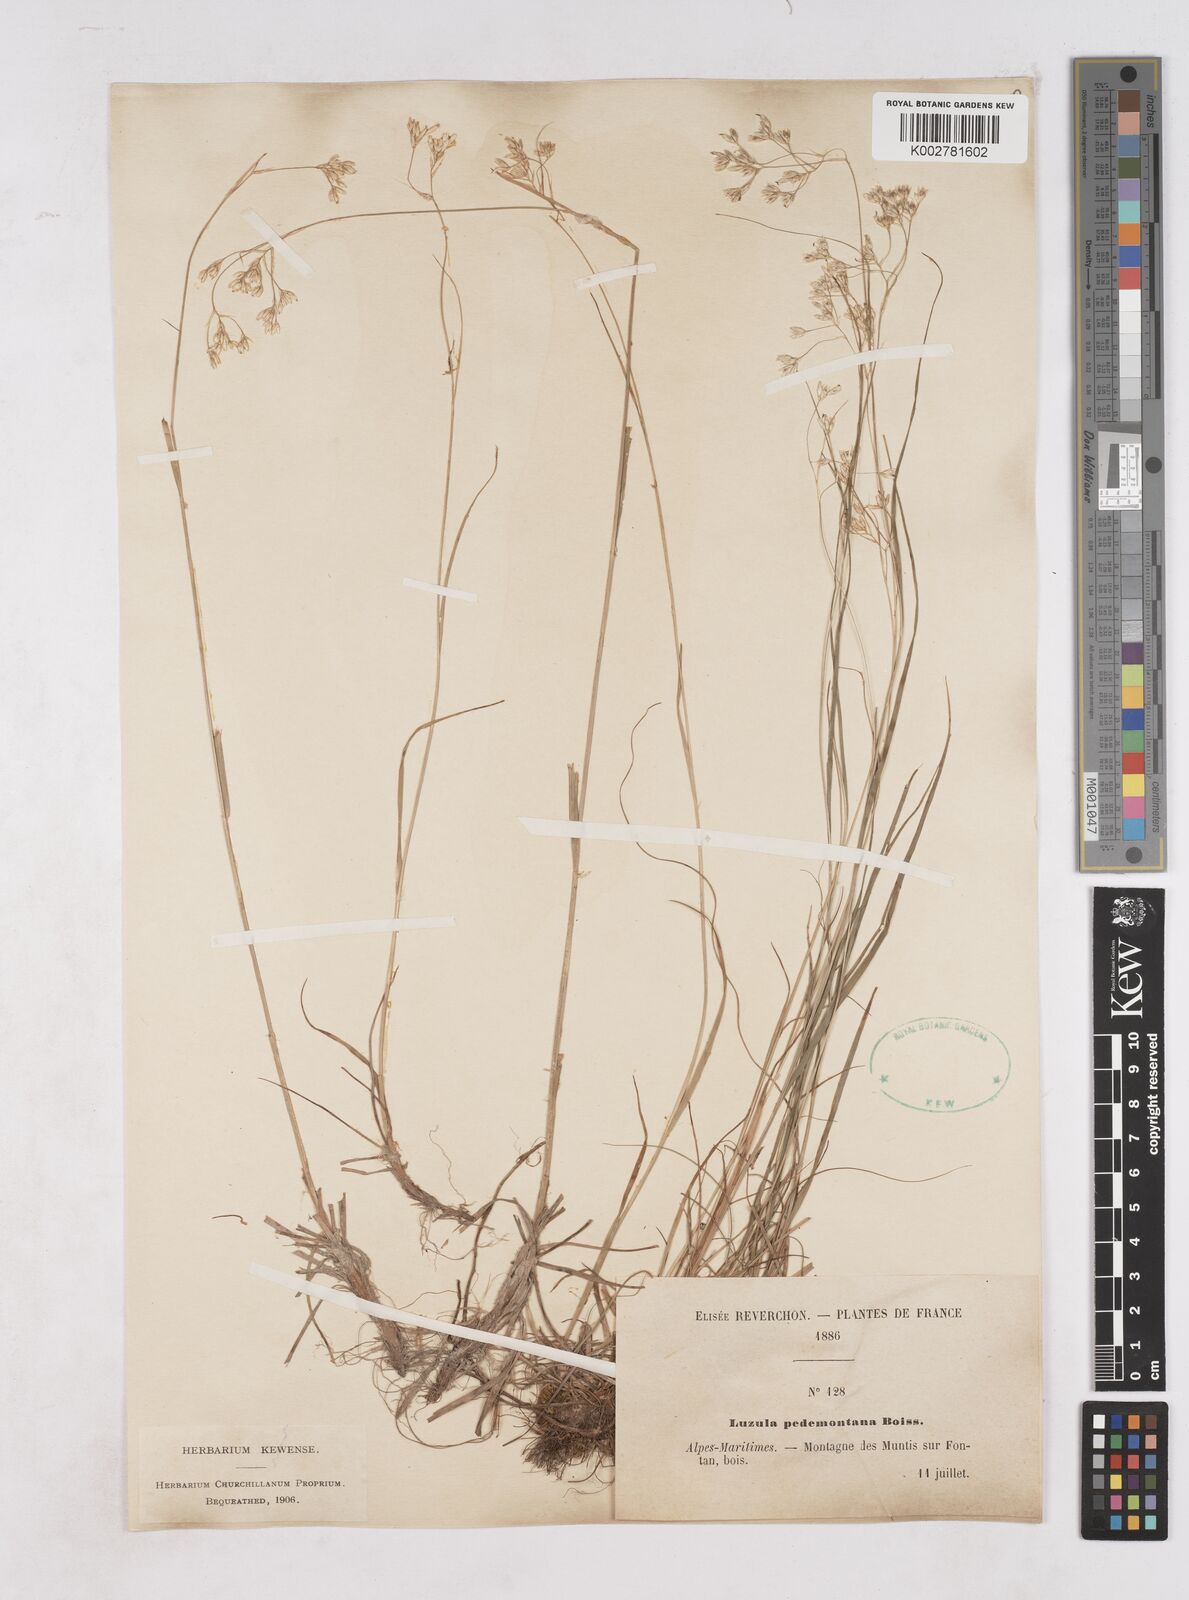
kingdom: Plantae
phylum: Tracheophyta
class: Liliopsida
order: Poales
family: Juncaceae
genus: Luzula
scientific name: Luzula pedemontana
